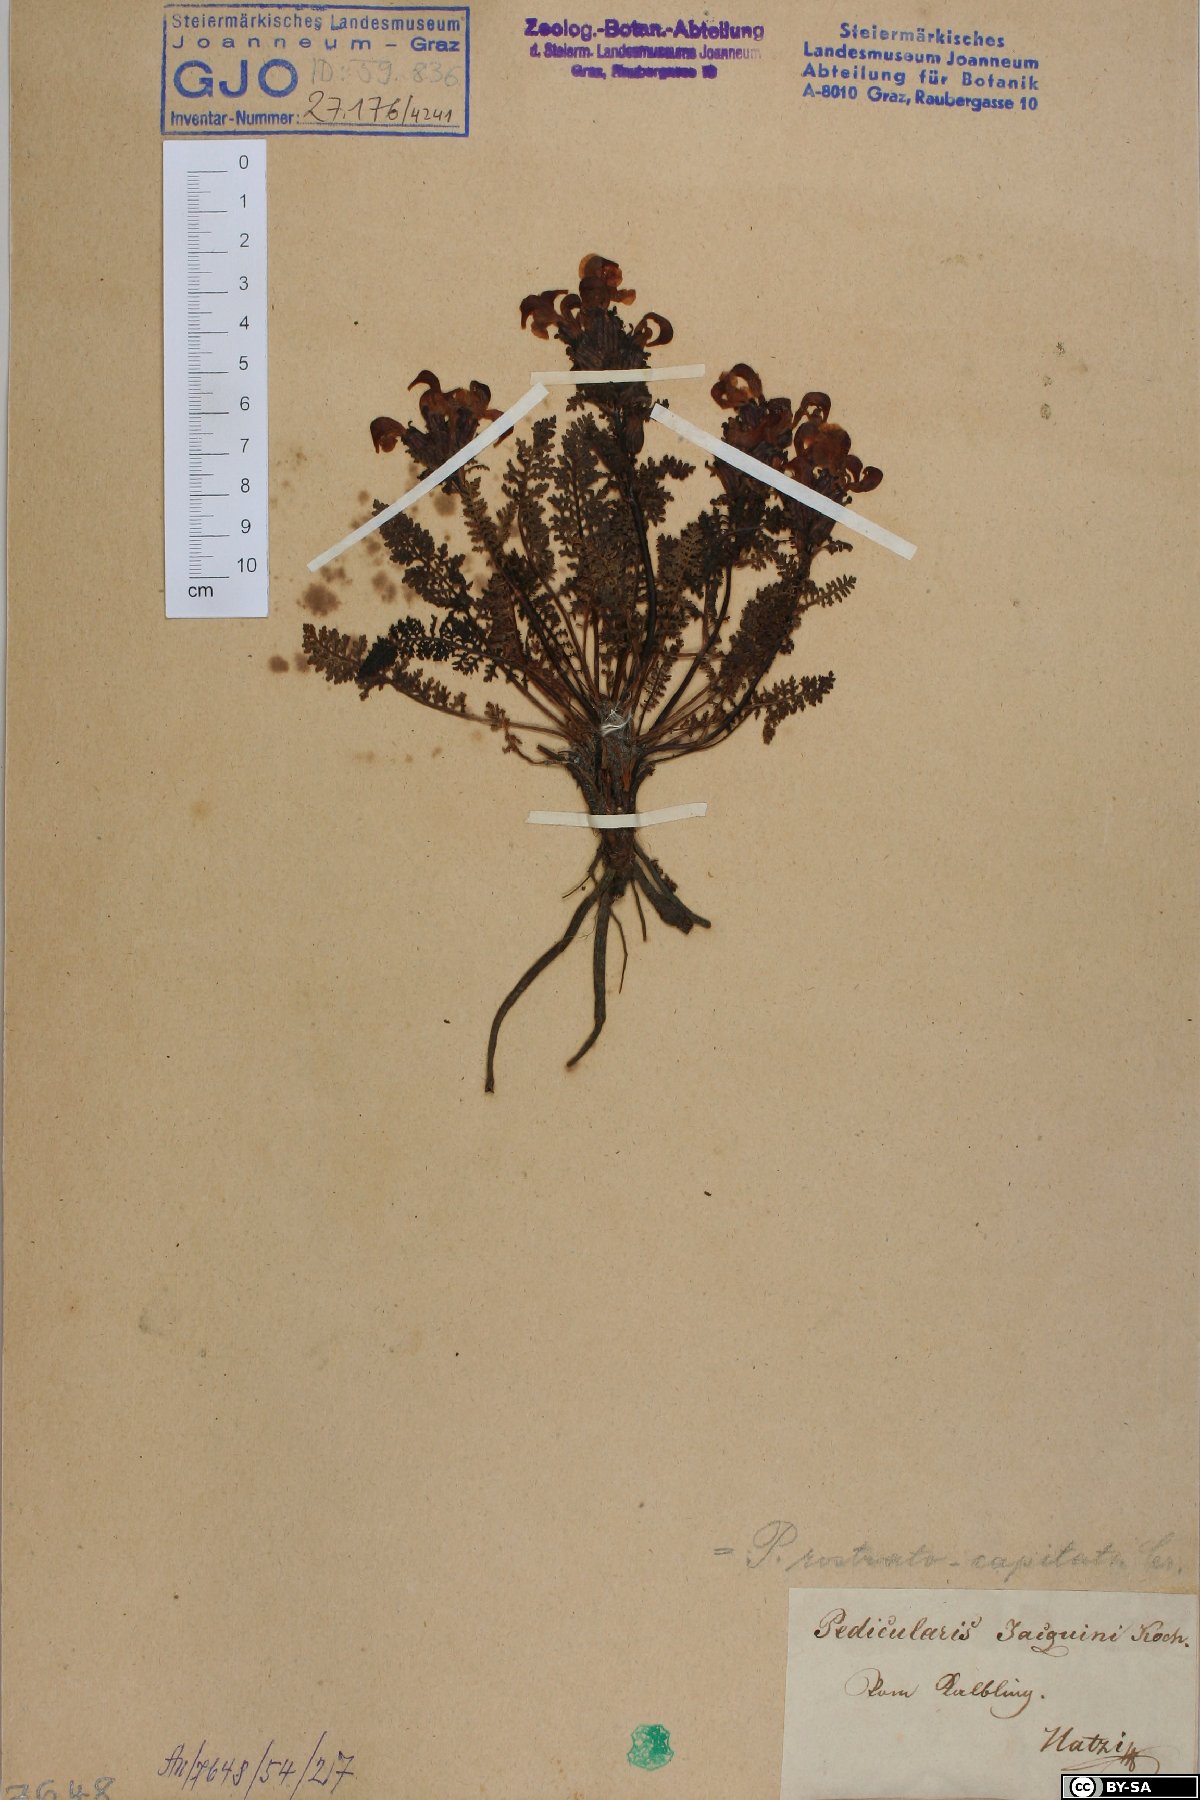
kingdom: Plantae
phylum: Tracheophyta
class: Magnoliopsida
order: Lamiales
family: Orobanchaceae
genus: Pedicularis
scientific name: Pedicularis rostratocapitata
